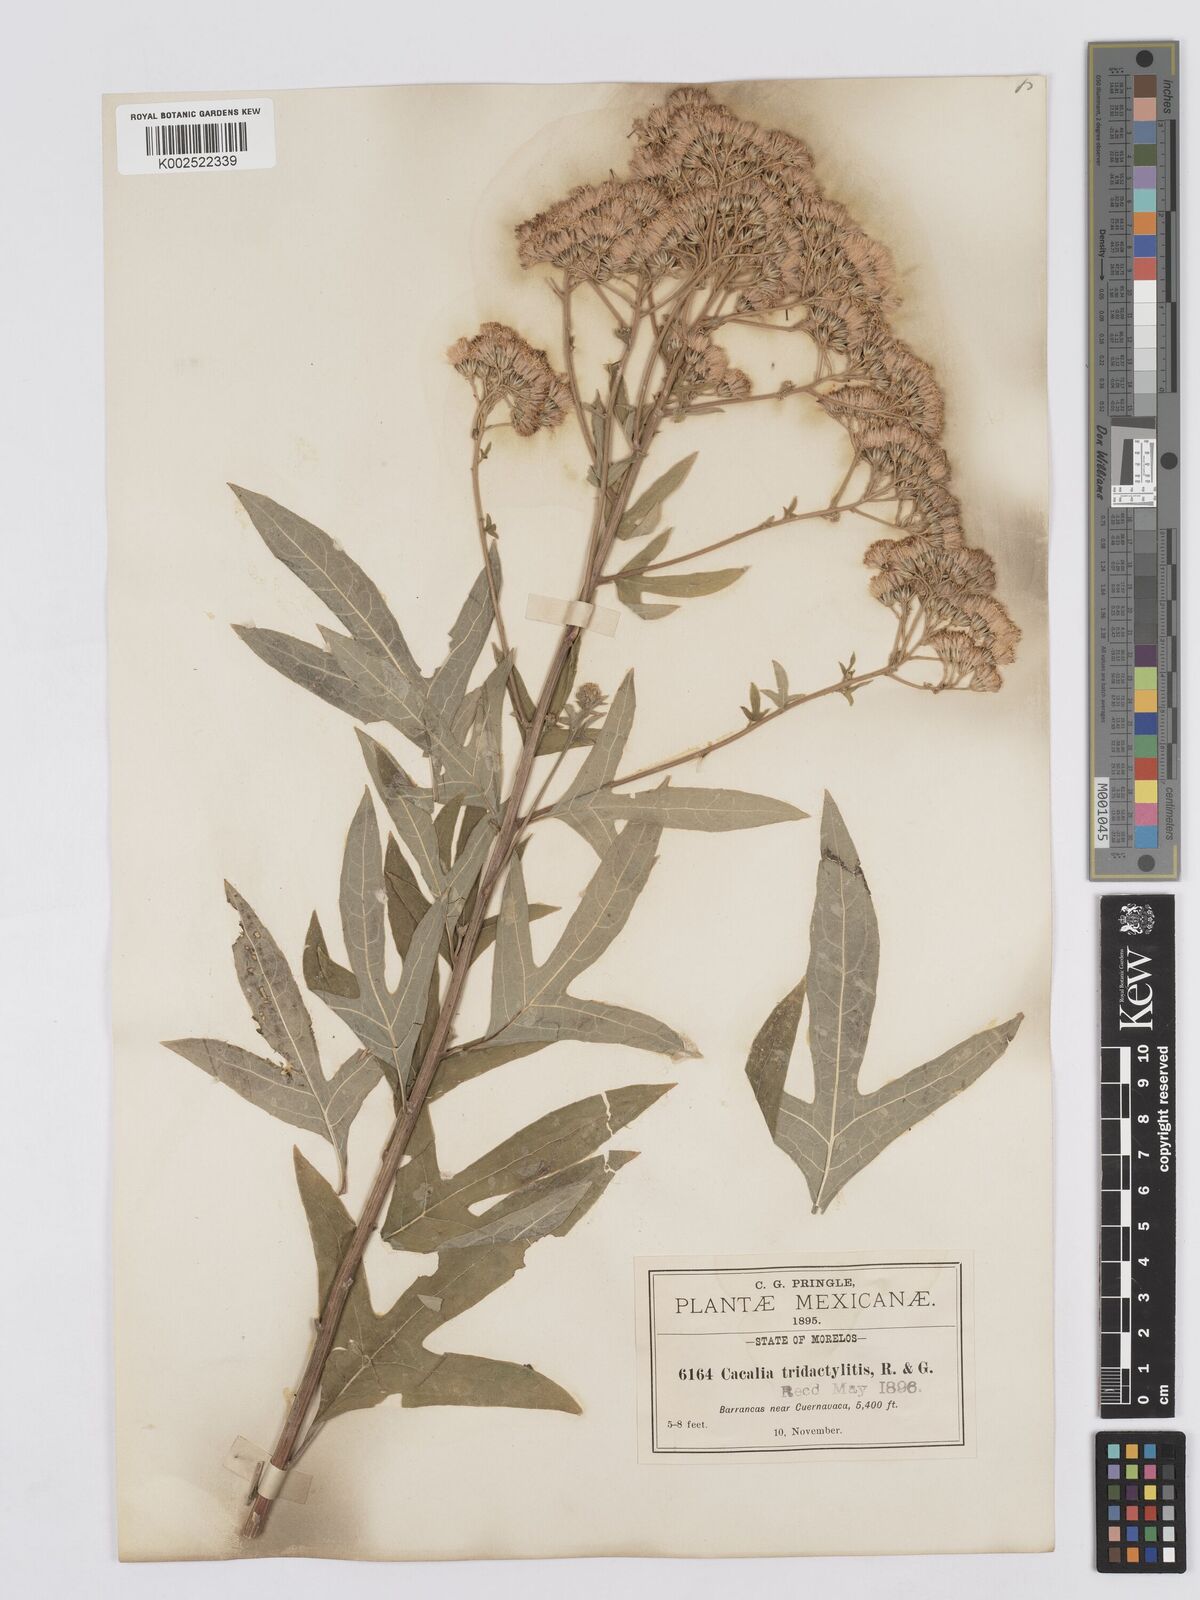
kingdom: Plantae
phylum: Tracheophyta
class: Magnoliopsida
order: Asterales
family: Asteraceae
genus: Digitacalia
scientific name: Digitacalia napeifolia
